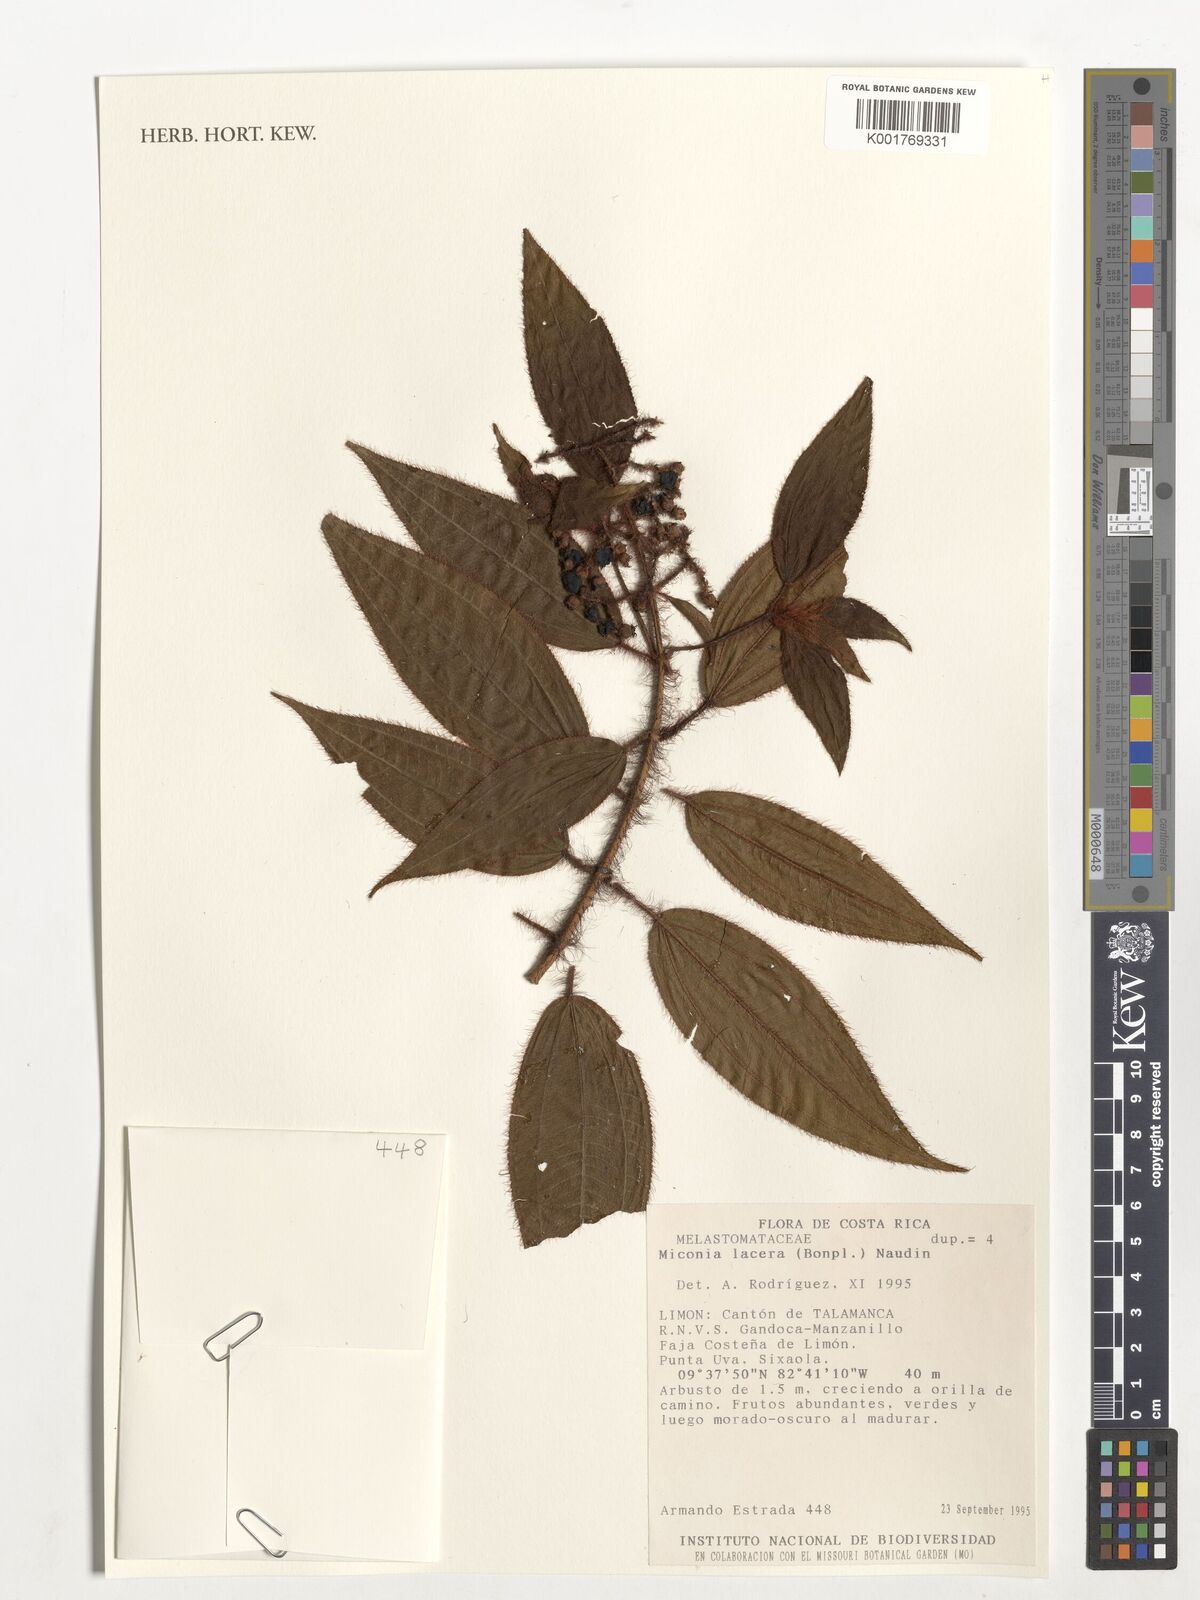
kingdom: Plantae
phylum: Tracheophyta
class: Magnoliopsida
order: Myrtales
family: Melastomataceae
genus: Miconia
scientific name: Miconia lacera
